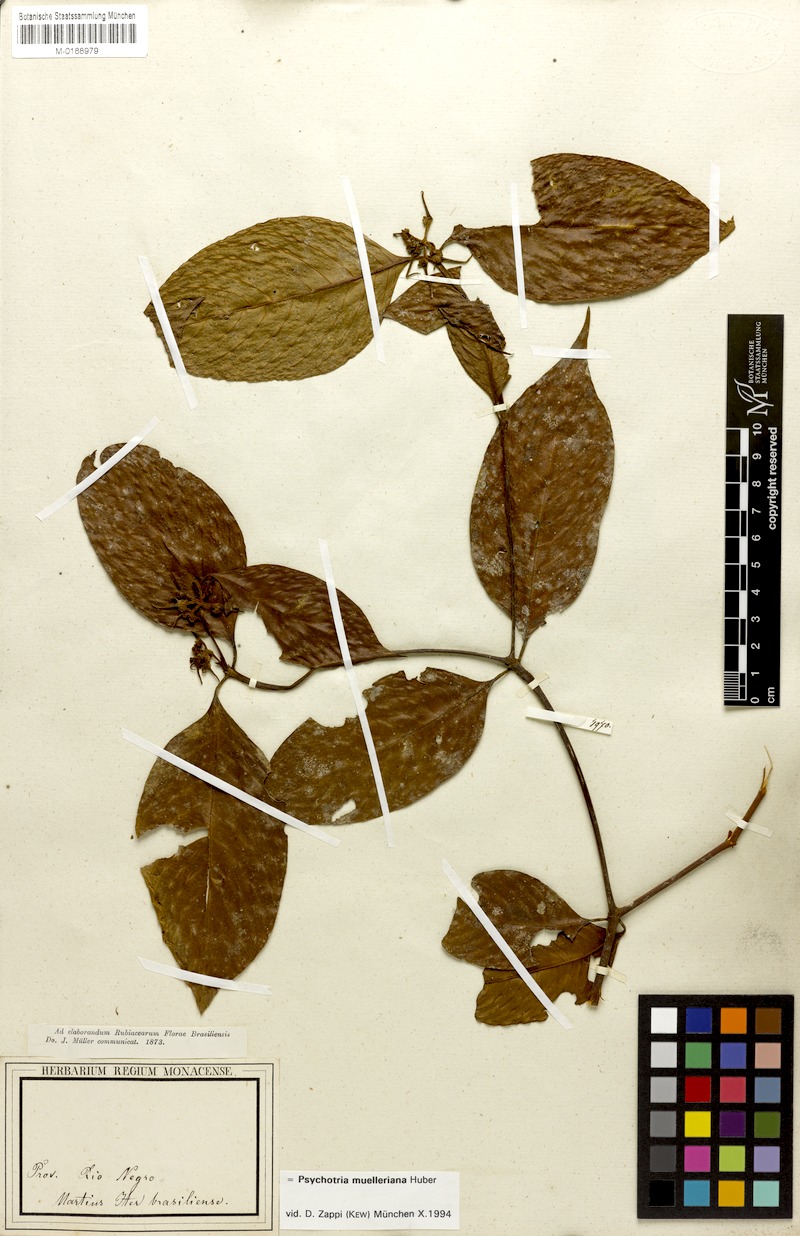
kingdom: Plantae
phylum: Tracheophyta
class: Magnoliopsida
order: Gentianales
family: Rubiaceae
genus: Palicourea
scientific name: Palicourea iodotricha
